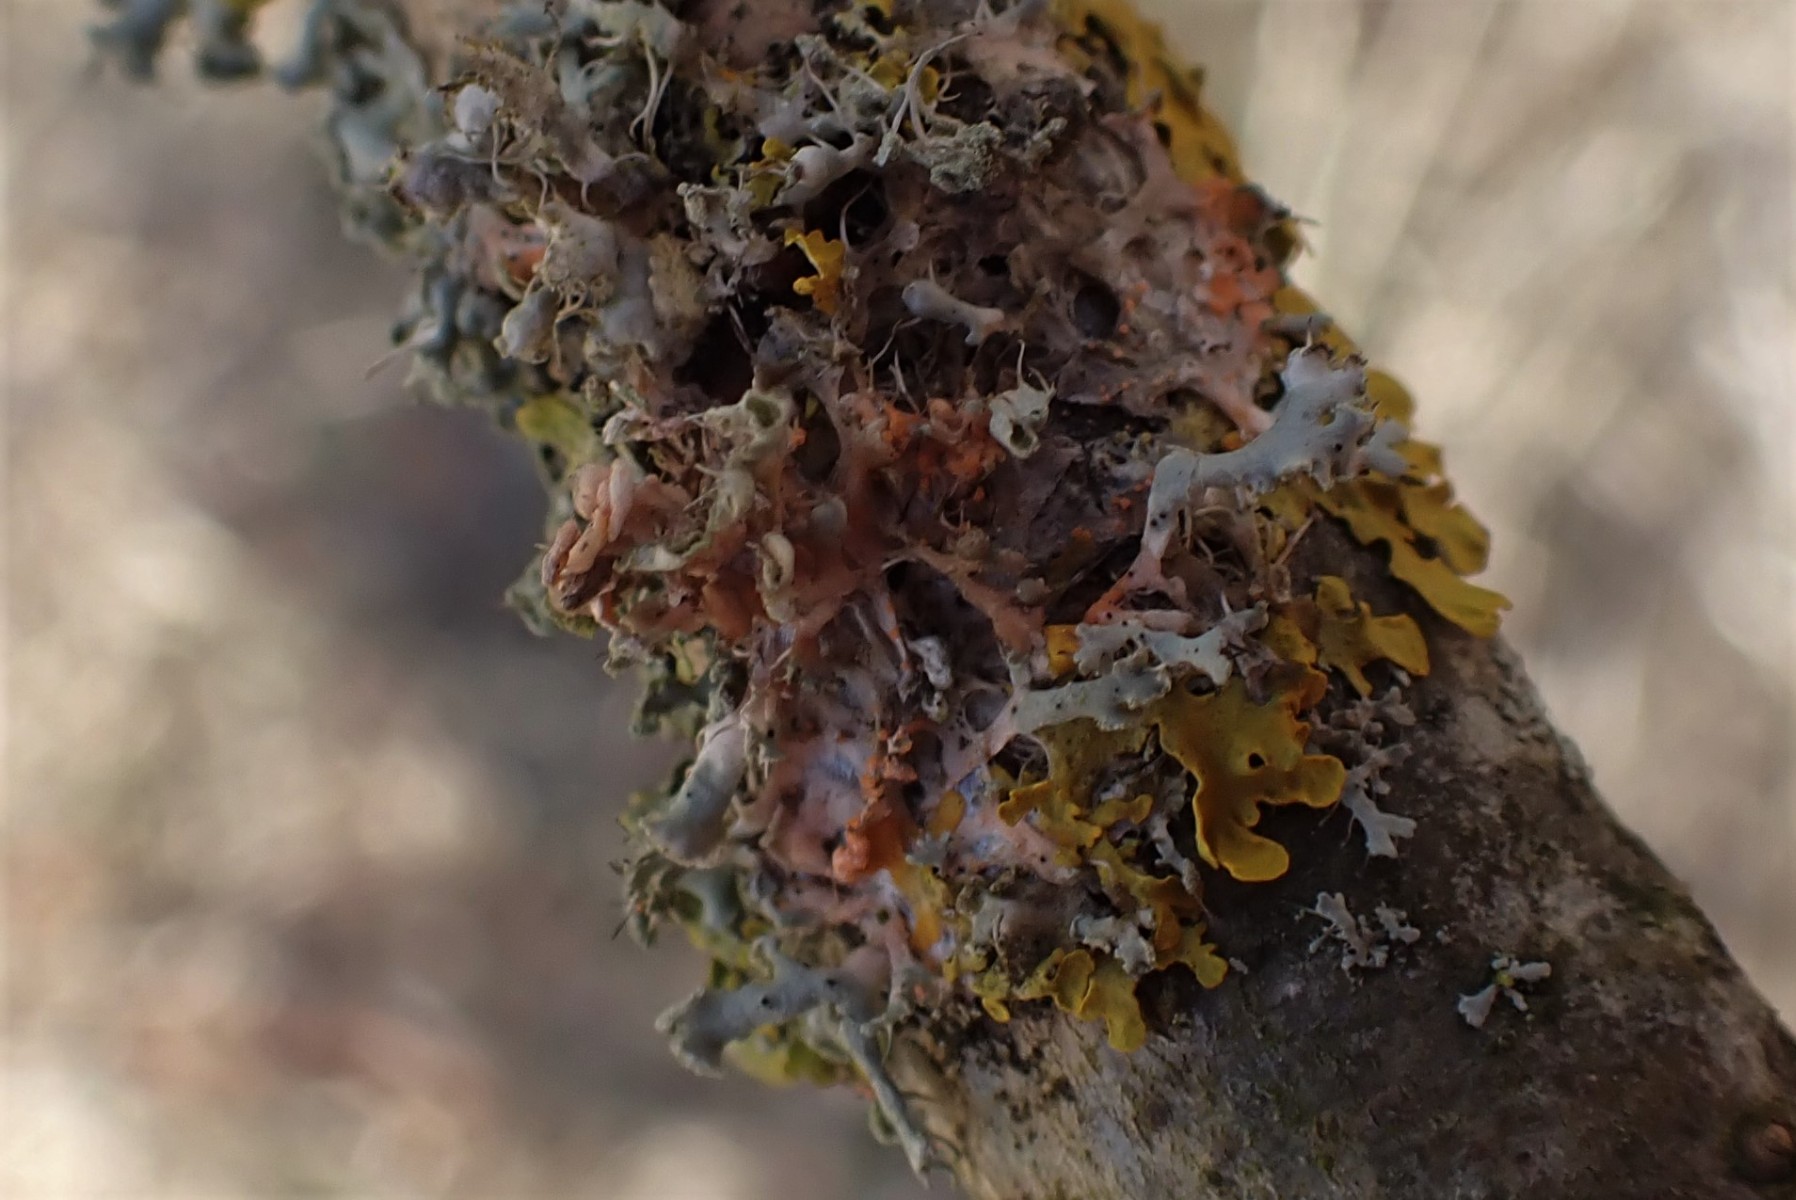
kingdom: Fungi
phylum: Basidiomycota
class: Agaricomycetes
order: Corticiales
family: Corticiaceae
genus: Erythricium
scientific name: Erythricium aurantiacum
